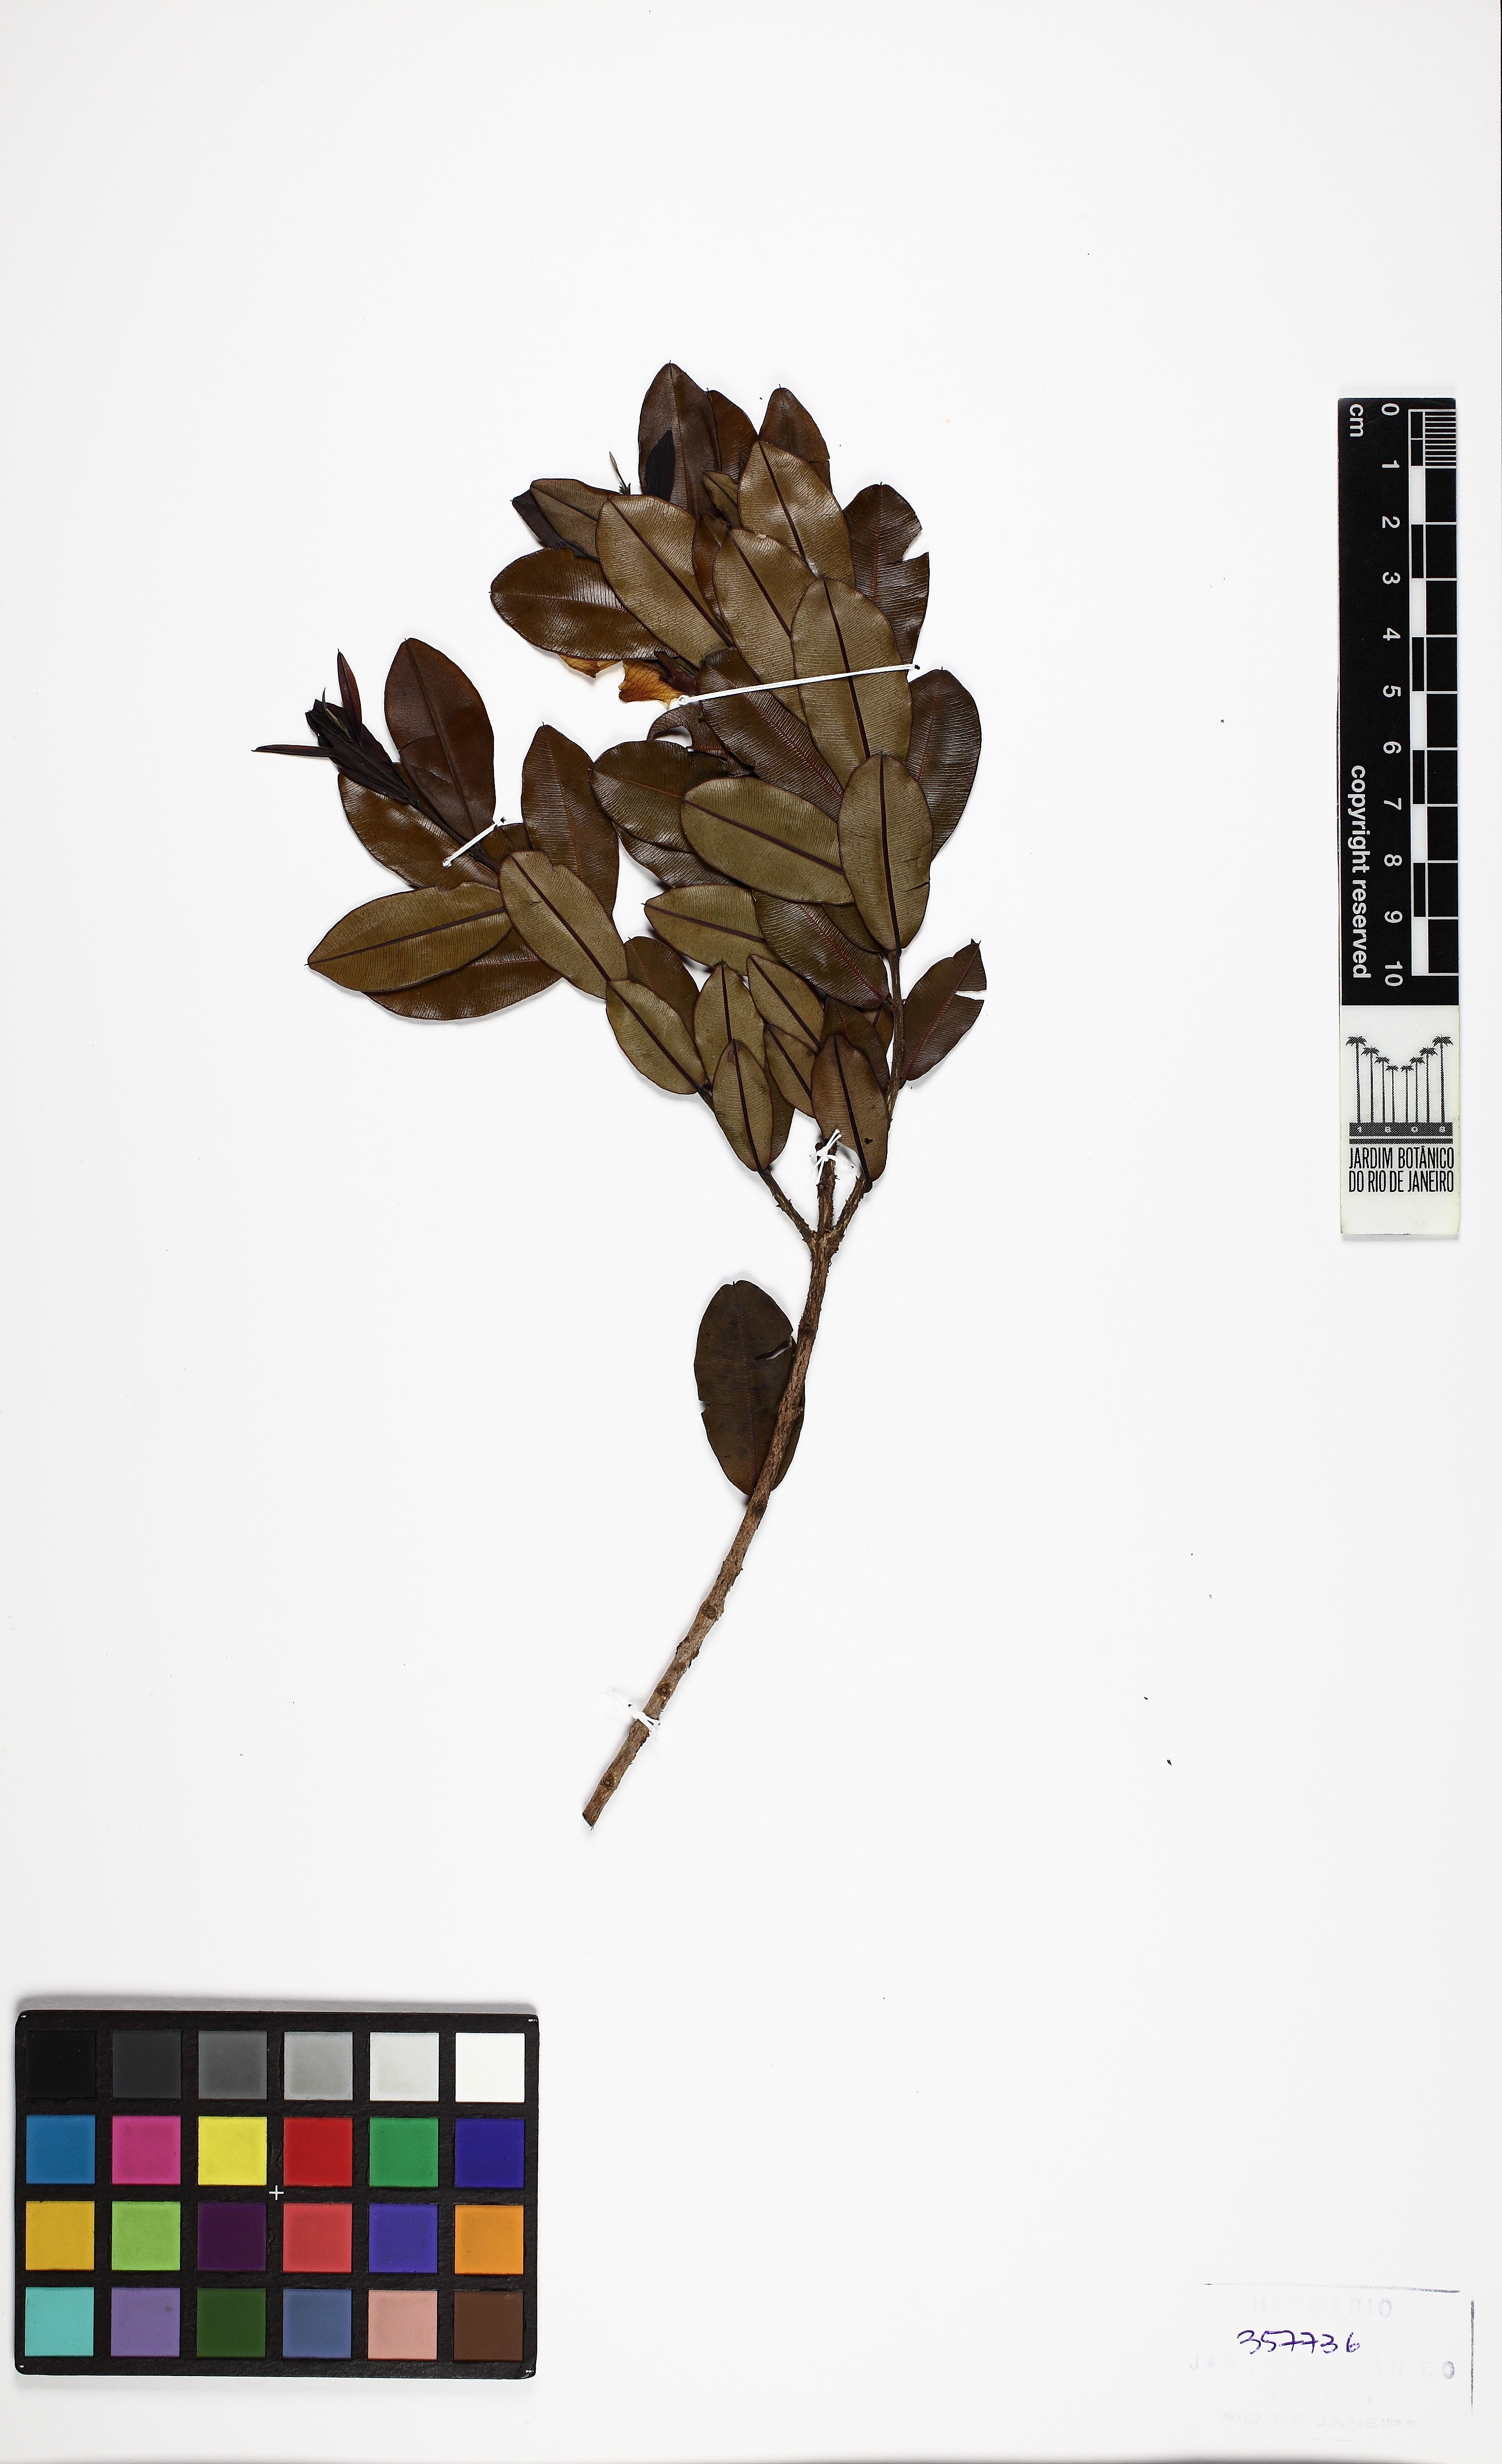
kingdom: Plantae
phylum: Tracheophyta
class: Magnoliopsida
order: Myrtales
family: Vochysiaceae
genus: Ruizterania
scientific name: Ruizterania retusa
